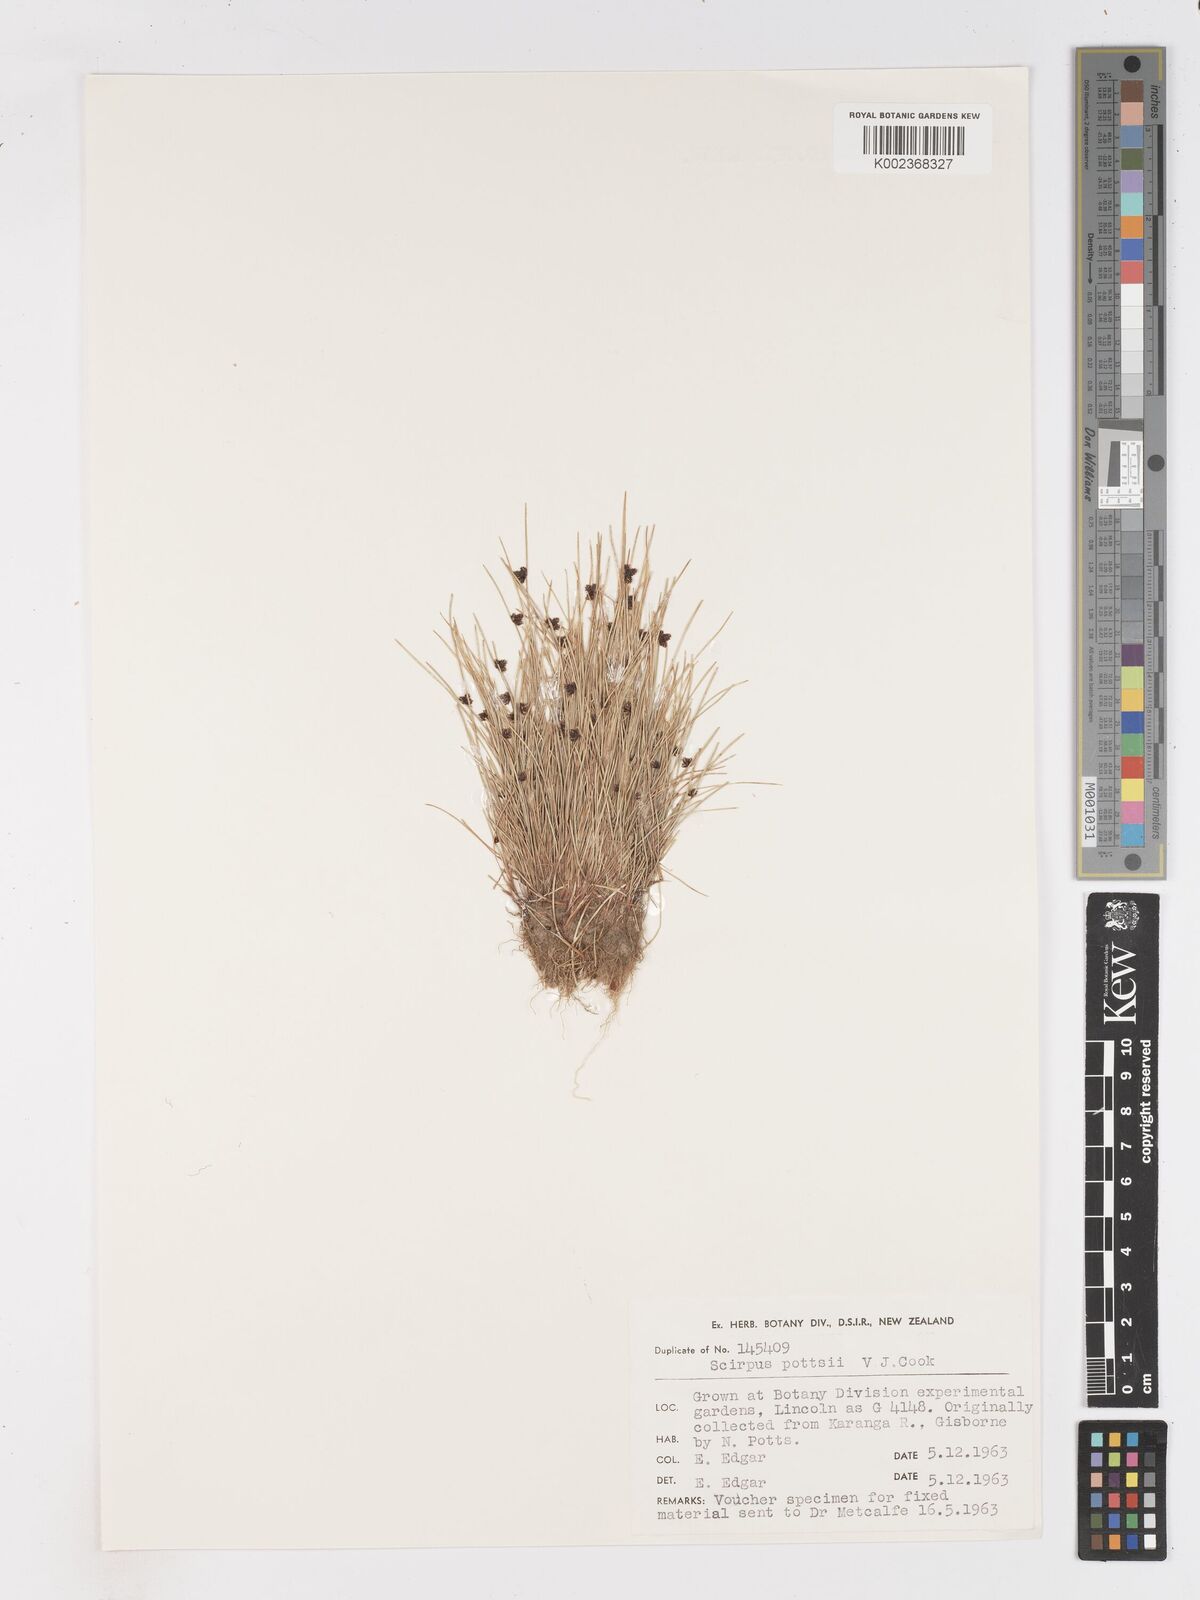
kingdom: Plantae
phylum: Tracheophyta
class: Liliopsida
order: Poales
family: Cyperaceae
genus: Isolepis
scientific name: Isolepis pottsii
